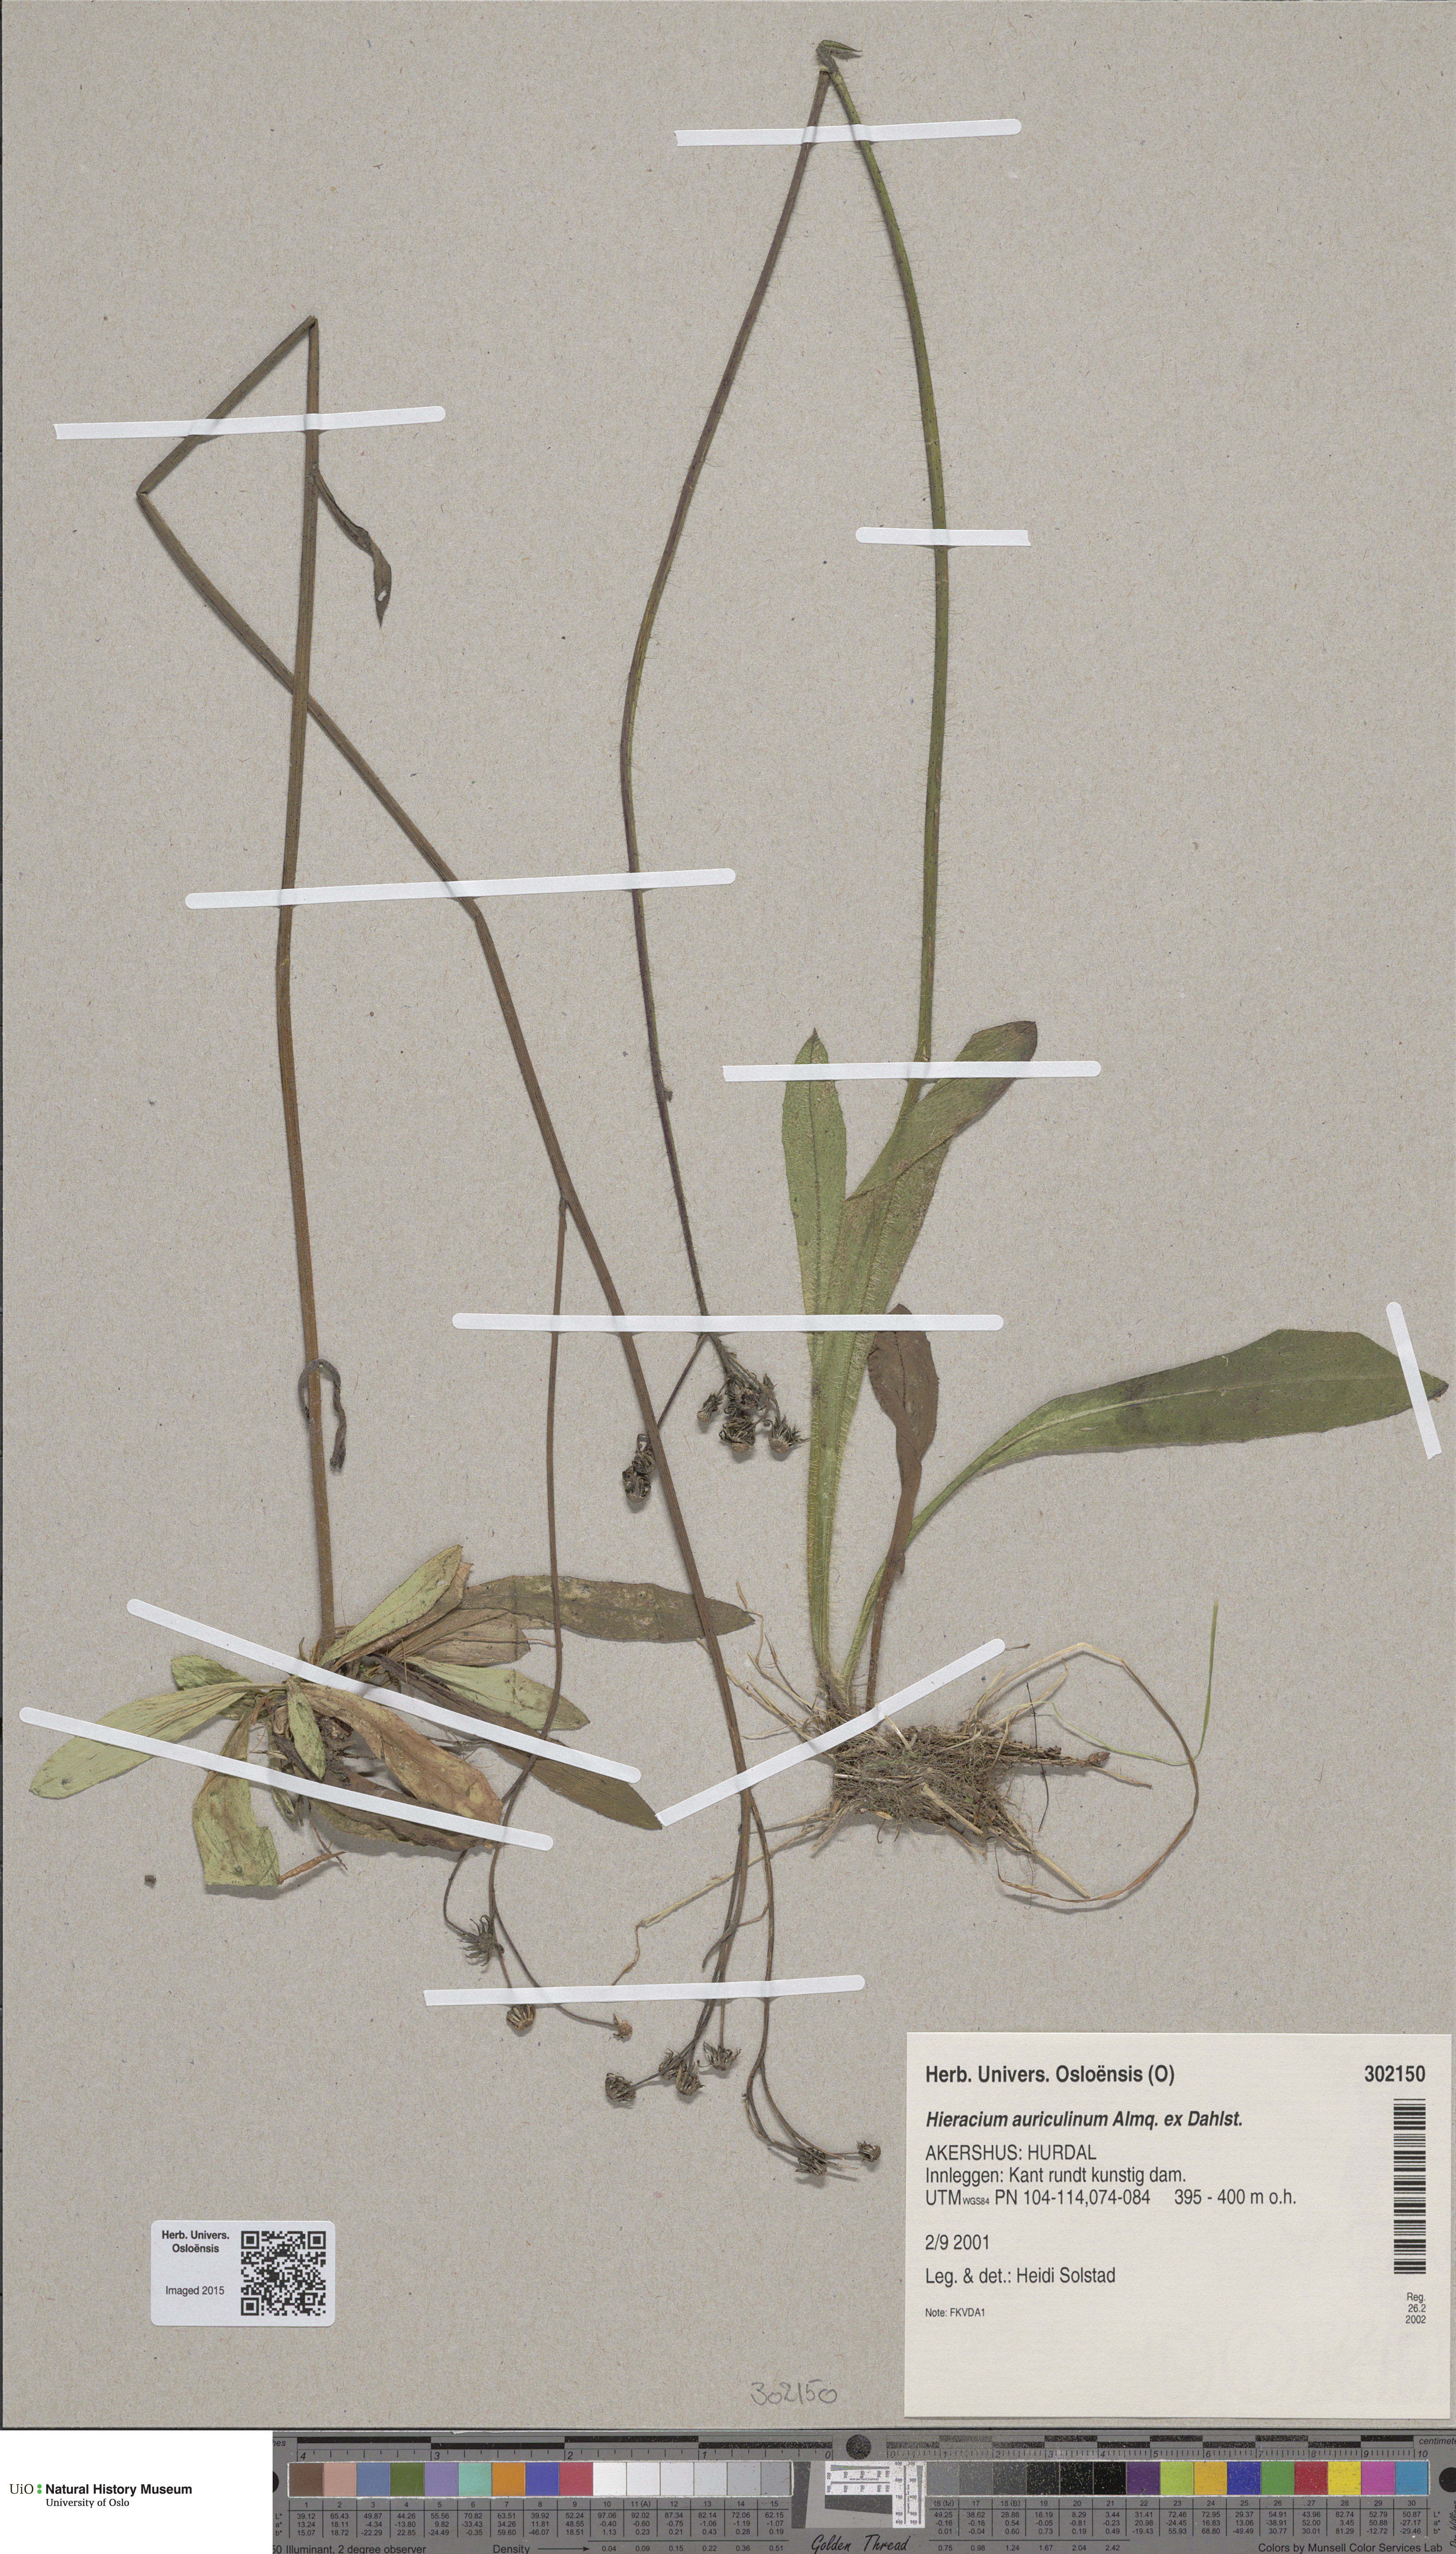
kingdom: Plantae
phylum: Tracheophyta
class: Magnoliopsida
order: Asterales
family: Asteraceae
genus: Pilosella
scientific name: Pilosella dubia
